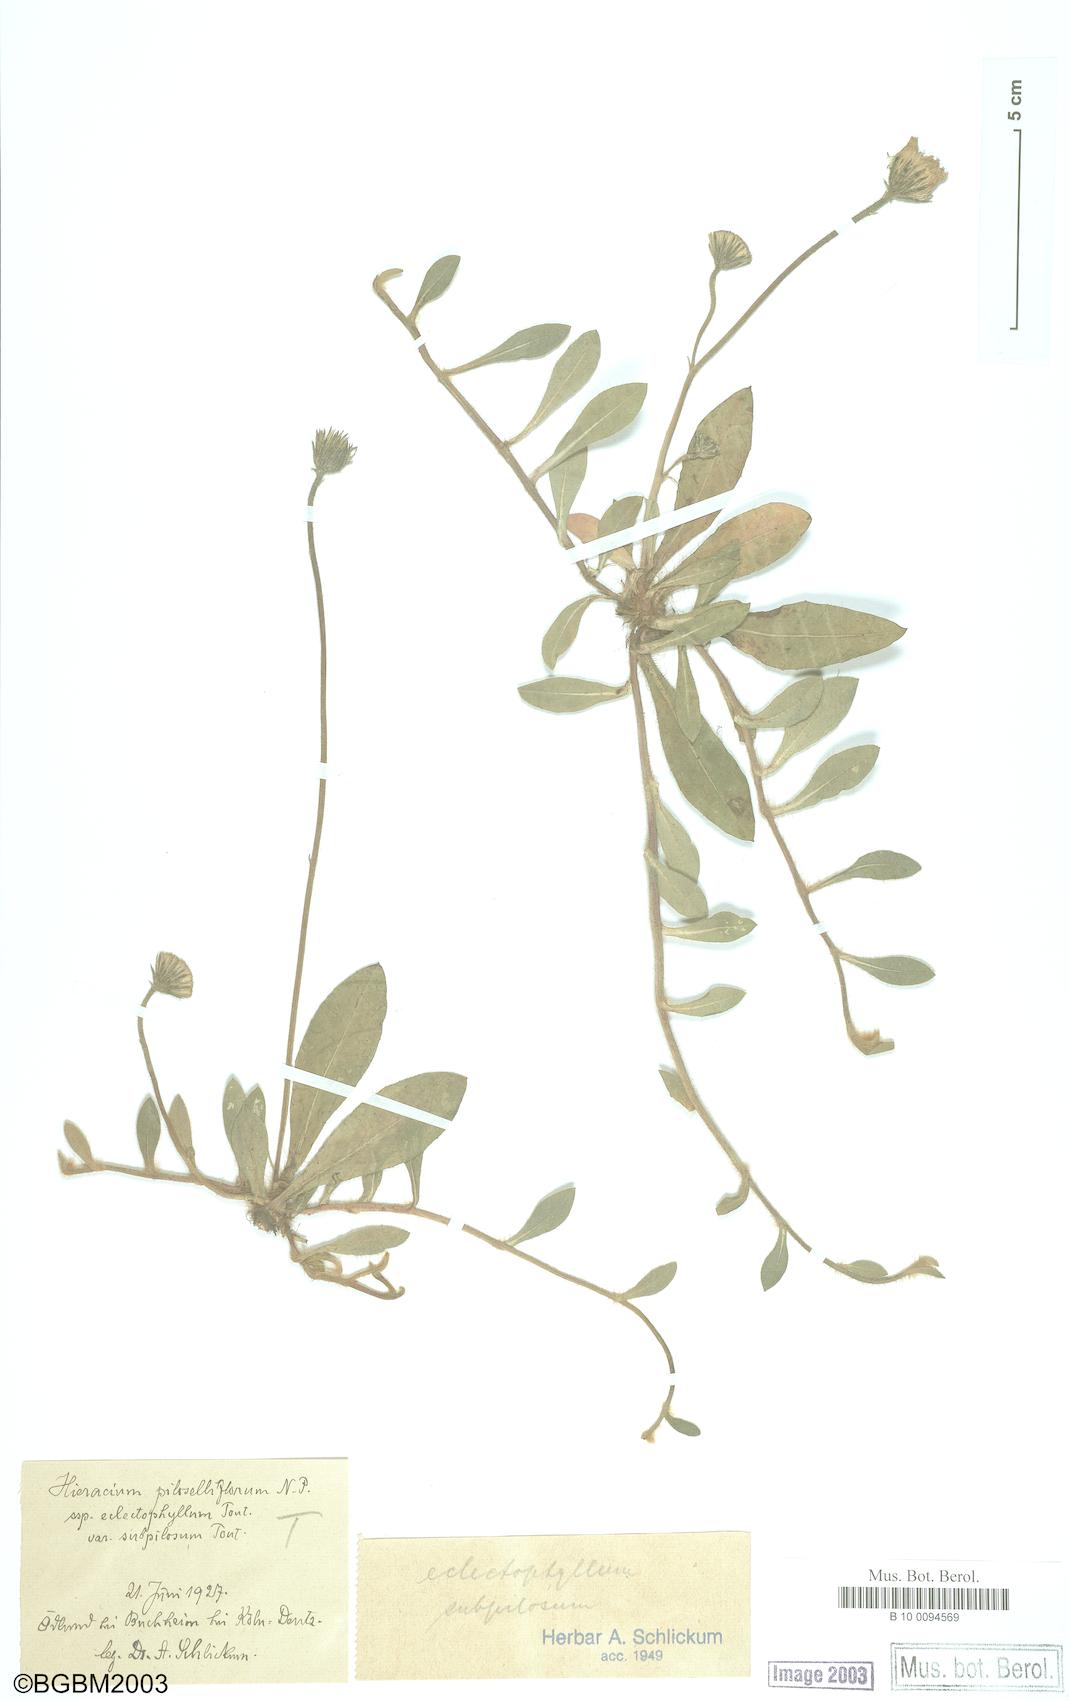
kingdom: Plantae
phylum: Tracheophyta
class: Magnoliopsida
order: Asterales
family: Asteraceae
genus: Pilosella
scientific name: Pilosella piloselliflora
